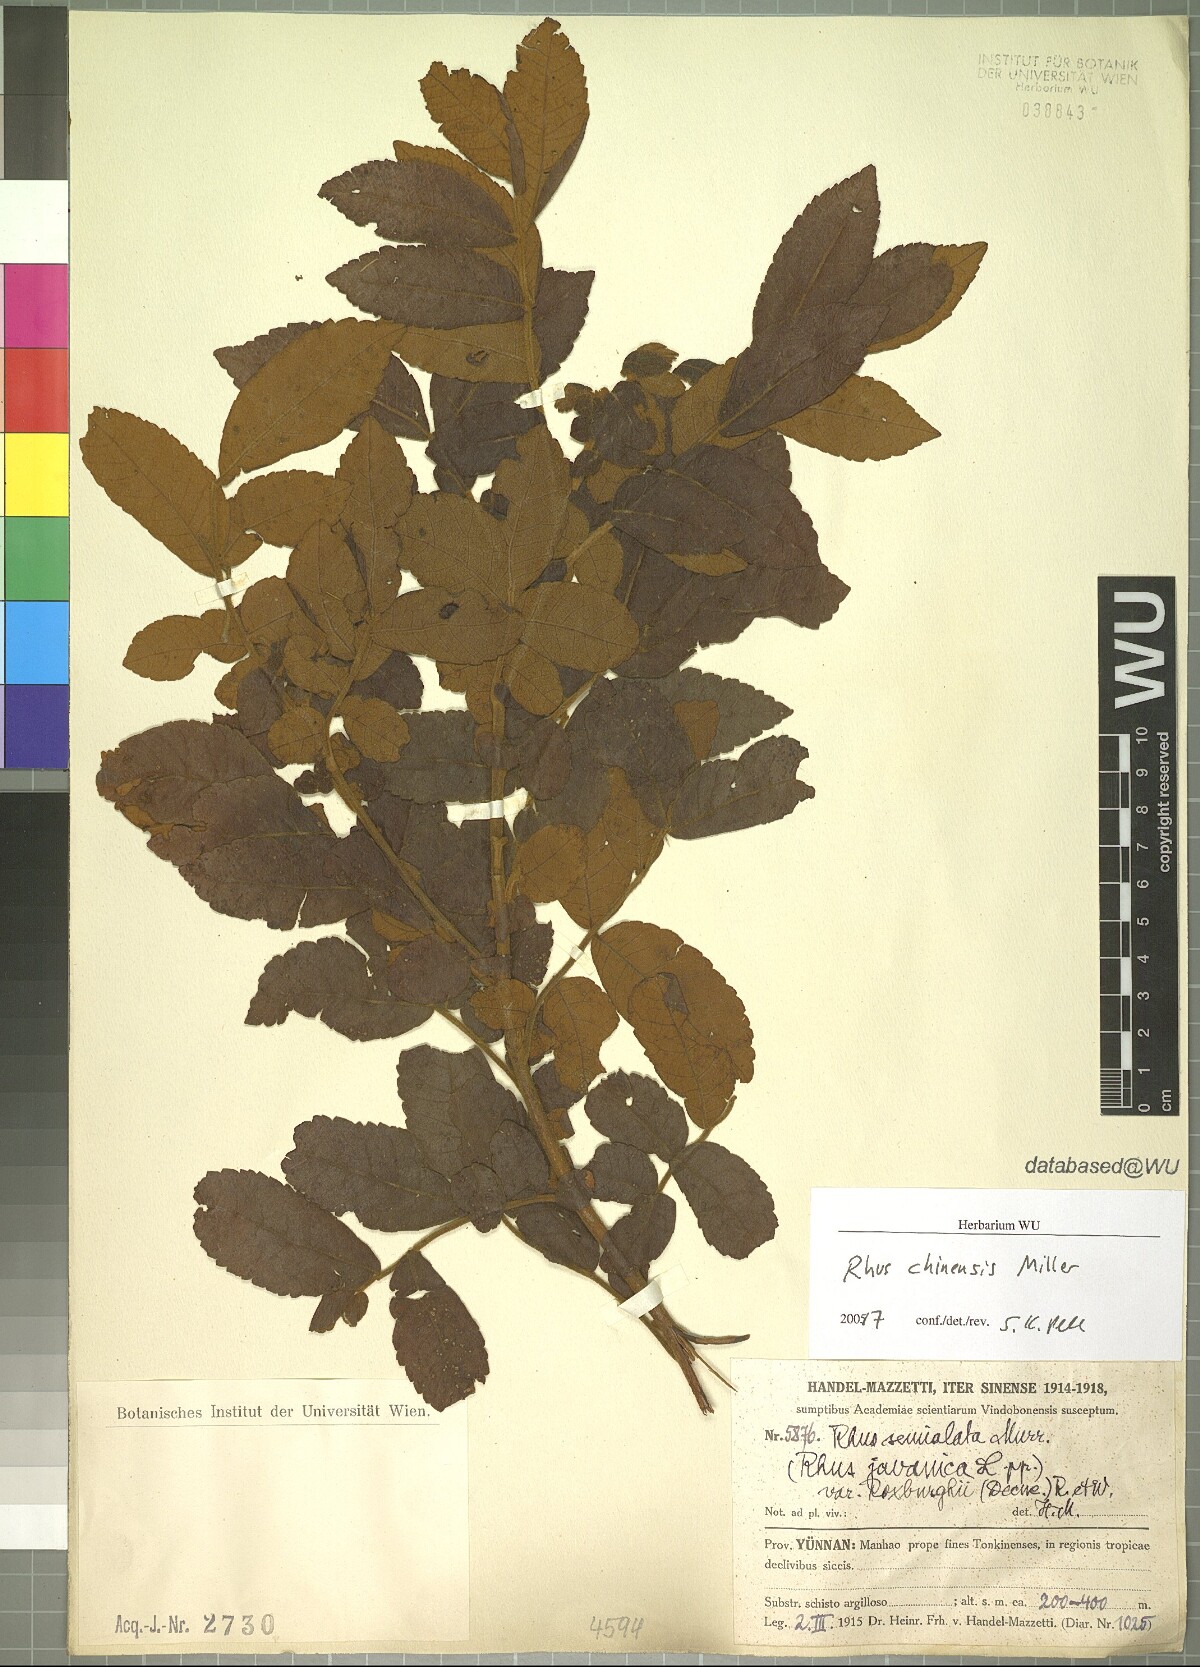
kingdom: Plantae
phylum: Tracheophyta
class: Magnoliopsida
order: Sapindales
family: Anacardiaceae
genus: Rhus
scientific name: Rhus chinensis
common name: Chinese gall
